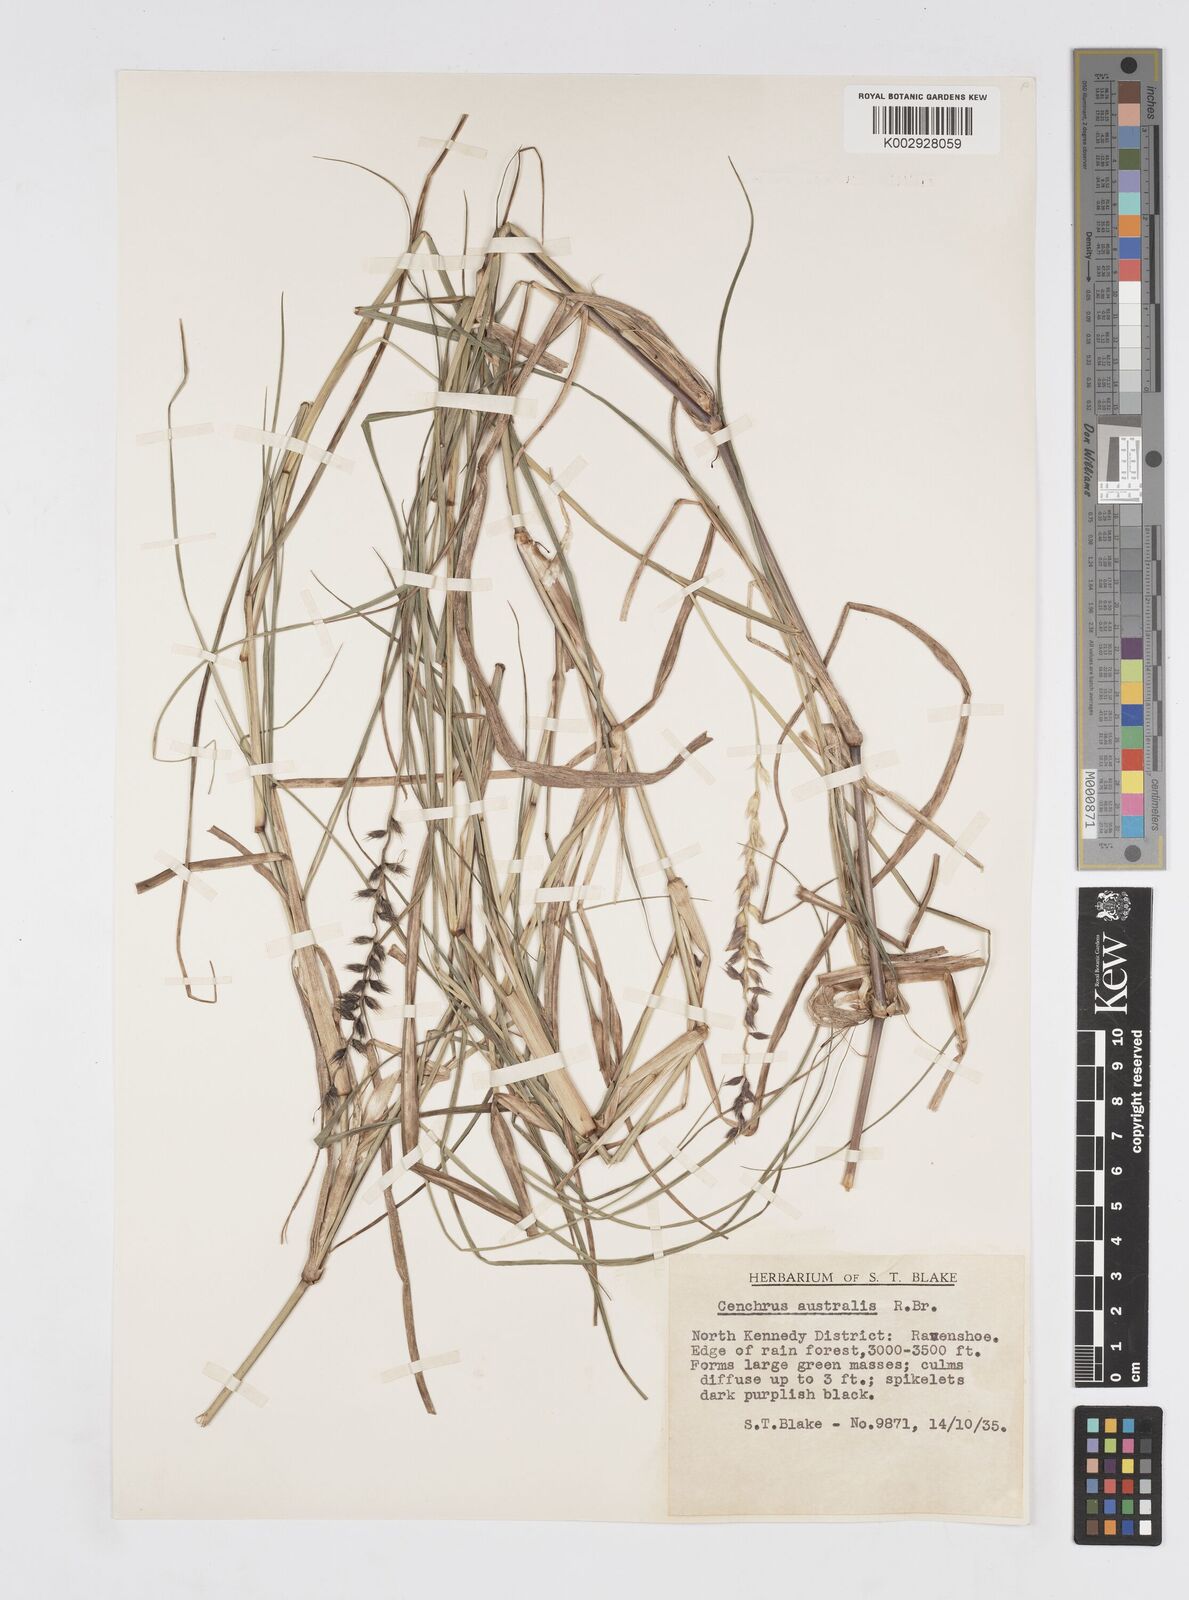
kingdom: Plantae
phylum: Tracheophyta
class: Liliopsida
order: Poales
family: Poaceae
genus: Cenchrus
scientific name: Cenchrus caliculatus
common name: Large bur grass
